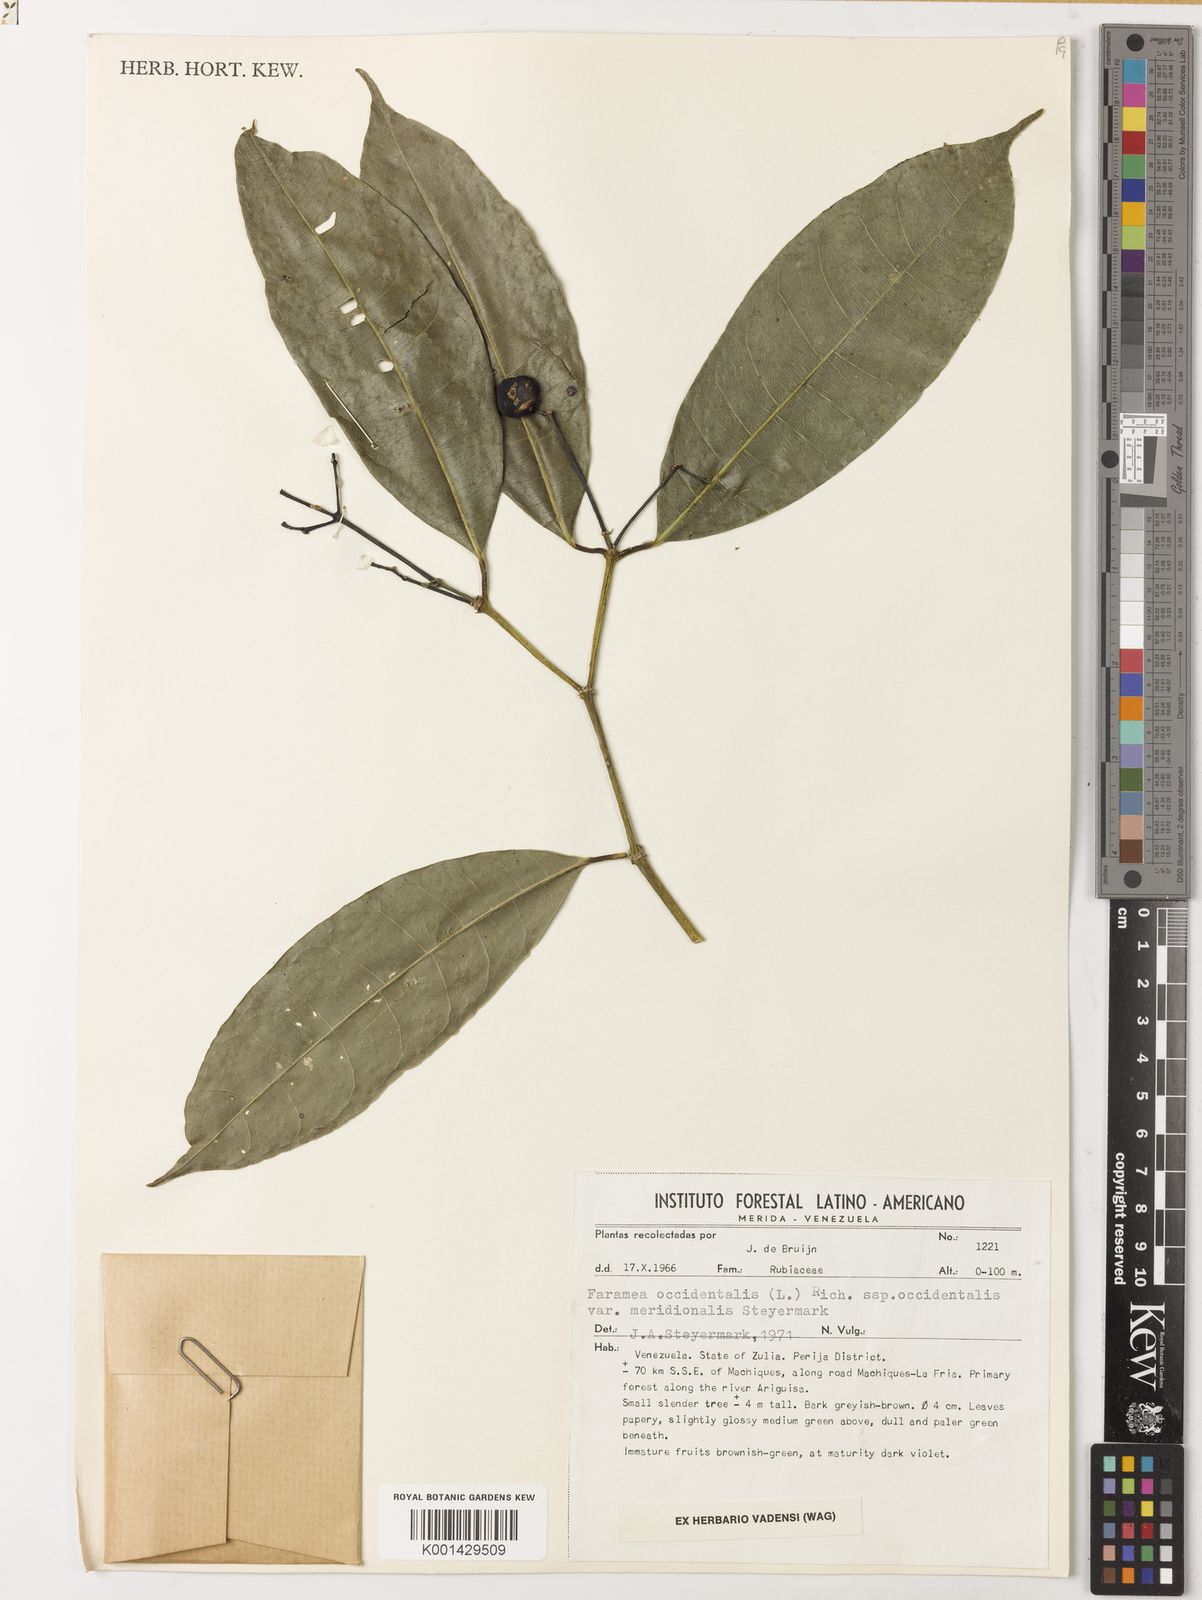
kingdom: Plantae
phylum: Tracheophyta
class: Magnoliopsida
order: Gentianales
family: Rubiaceae
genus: Faramea
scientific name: Faramea occidentalis
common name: False coffee
